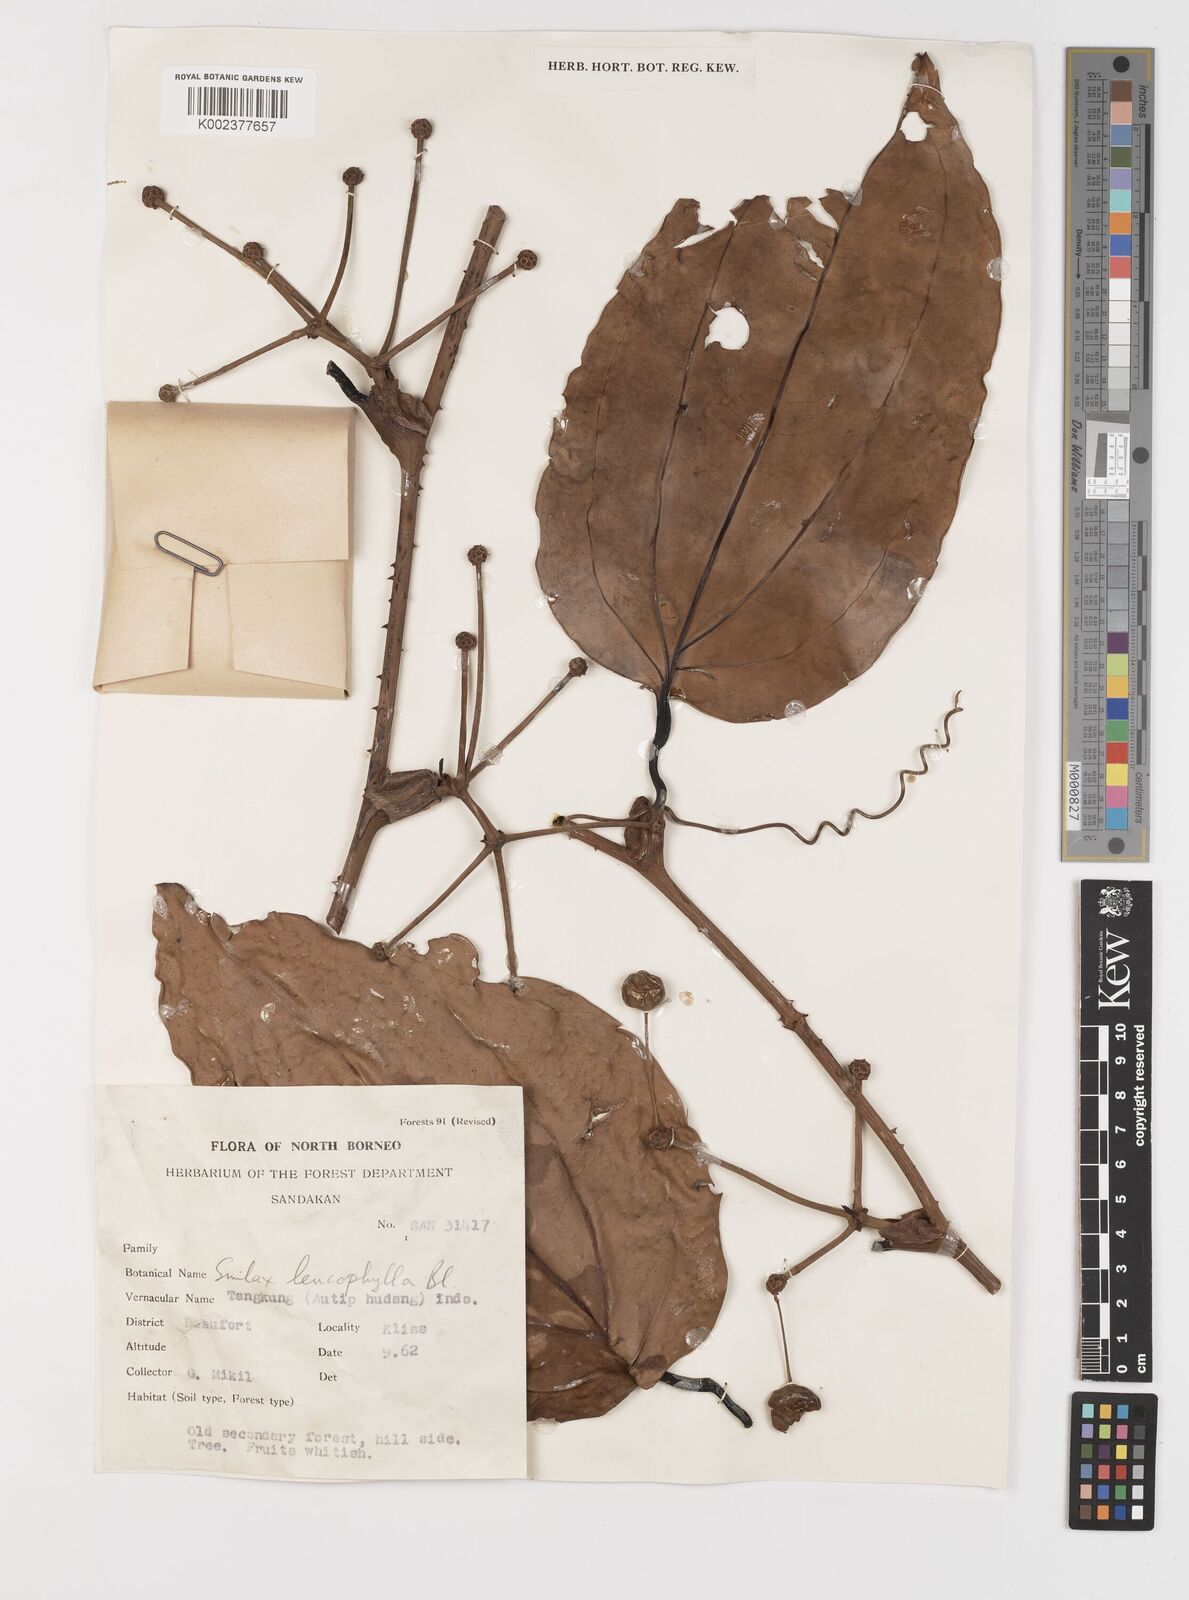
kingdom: Plantae
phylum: Tracheophyta
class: Liliopsida
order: Liliales
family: Smilacaceae
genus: Smilax
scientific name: Smilax leucophylla
